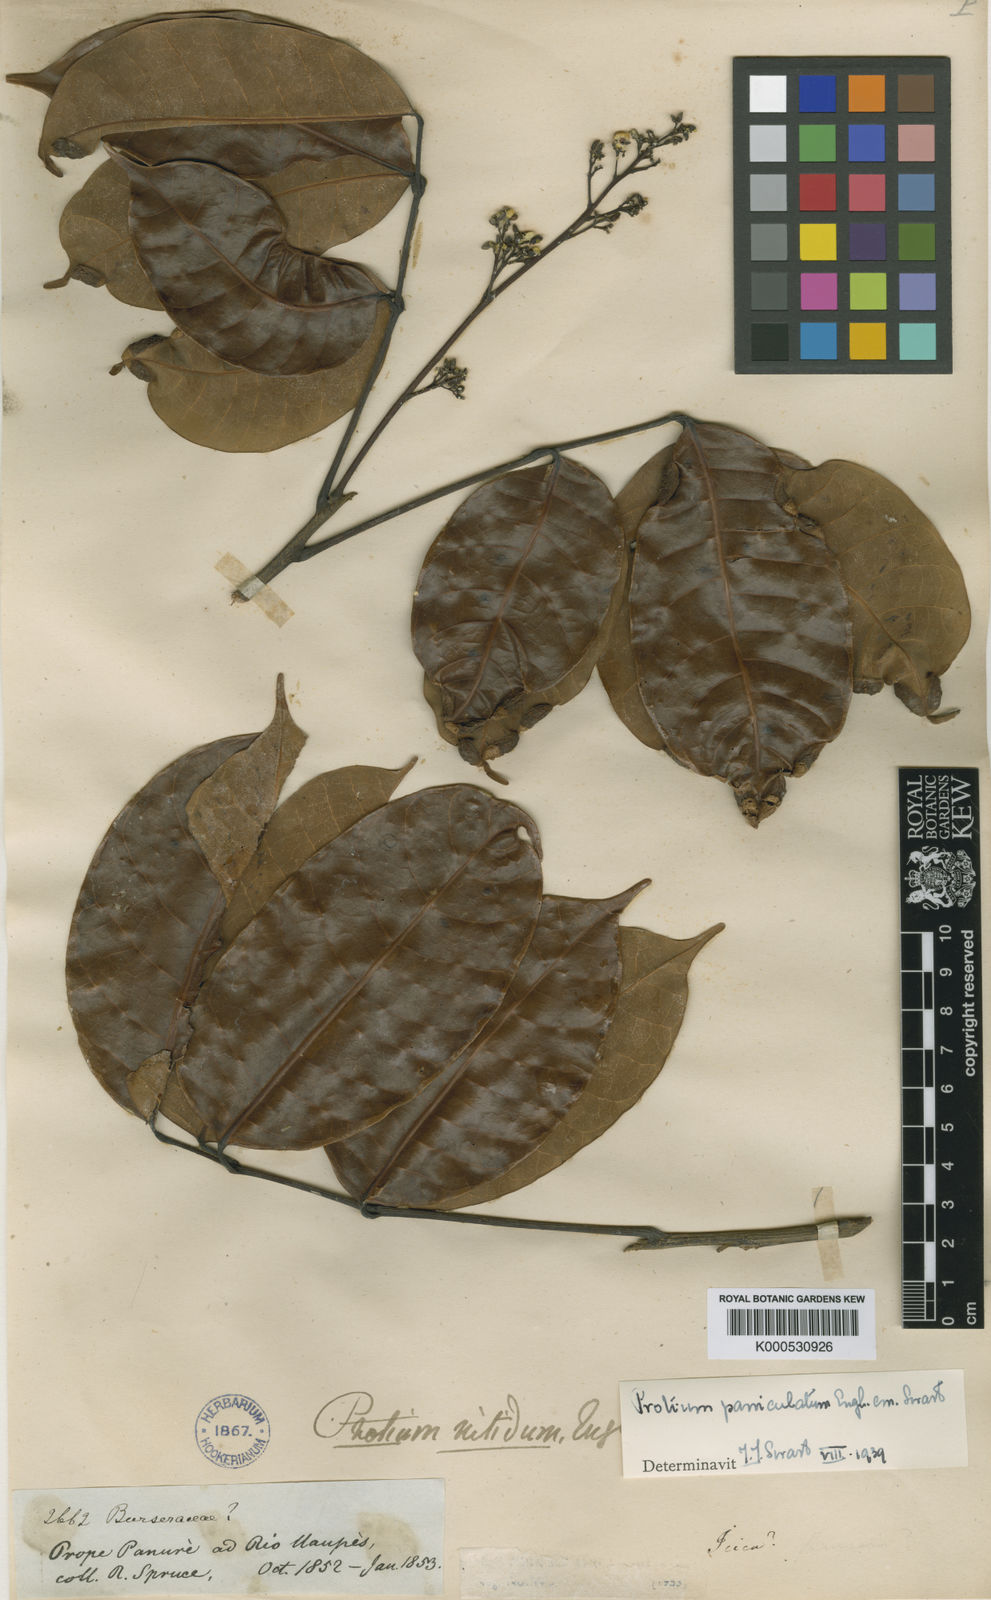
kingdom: Plantae
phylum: Tracheophyta
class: Magnoliopsida
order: Sapindales
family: Burseraceae
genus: Protium
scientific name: Protium paniculatum
